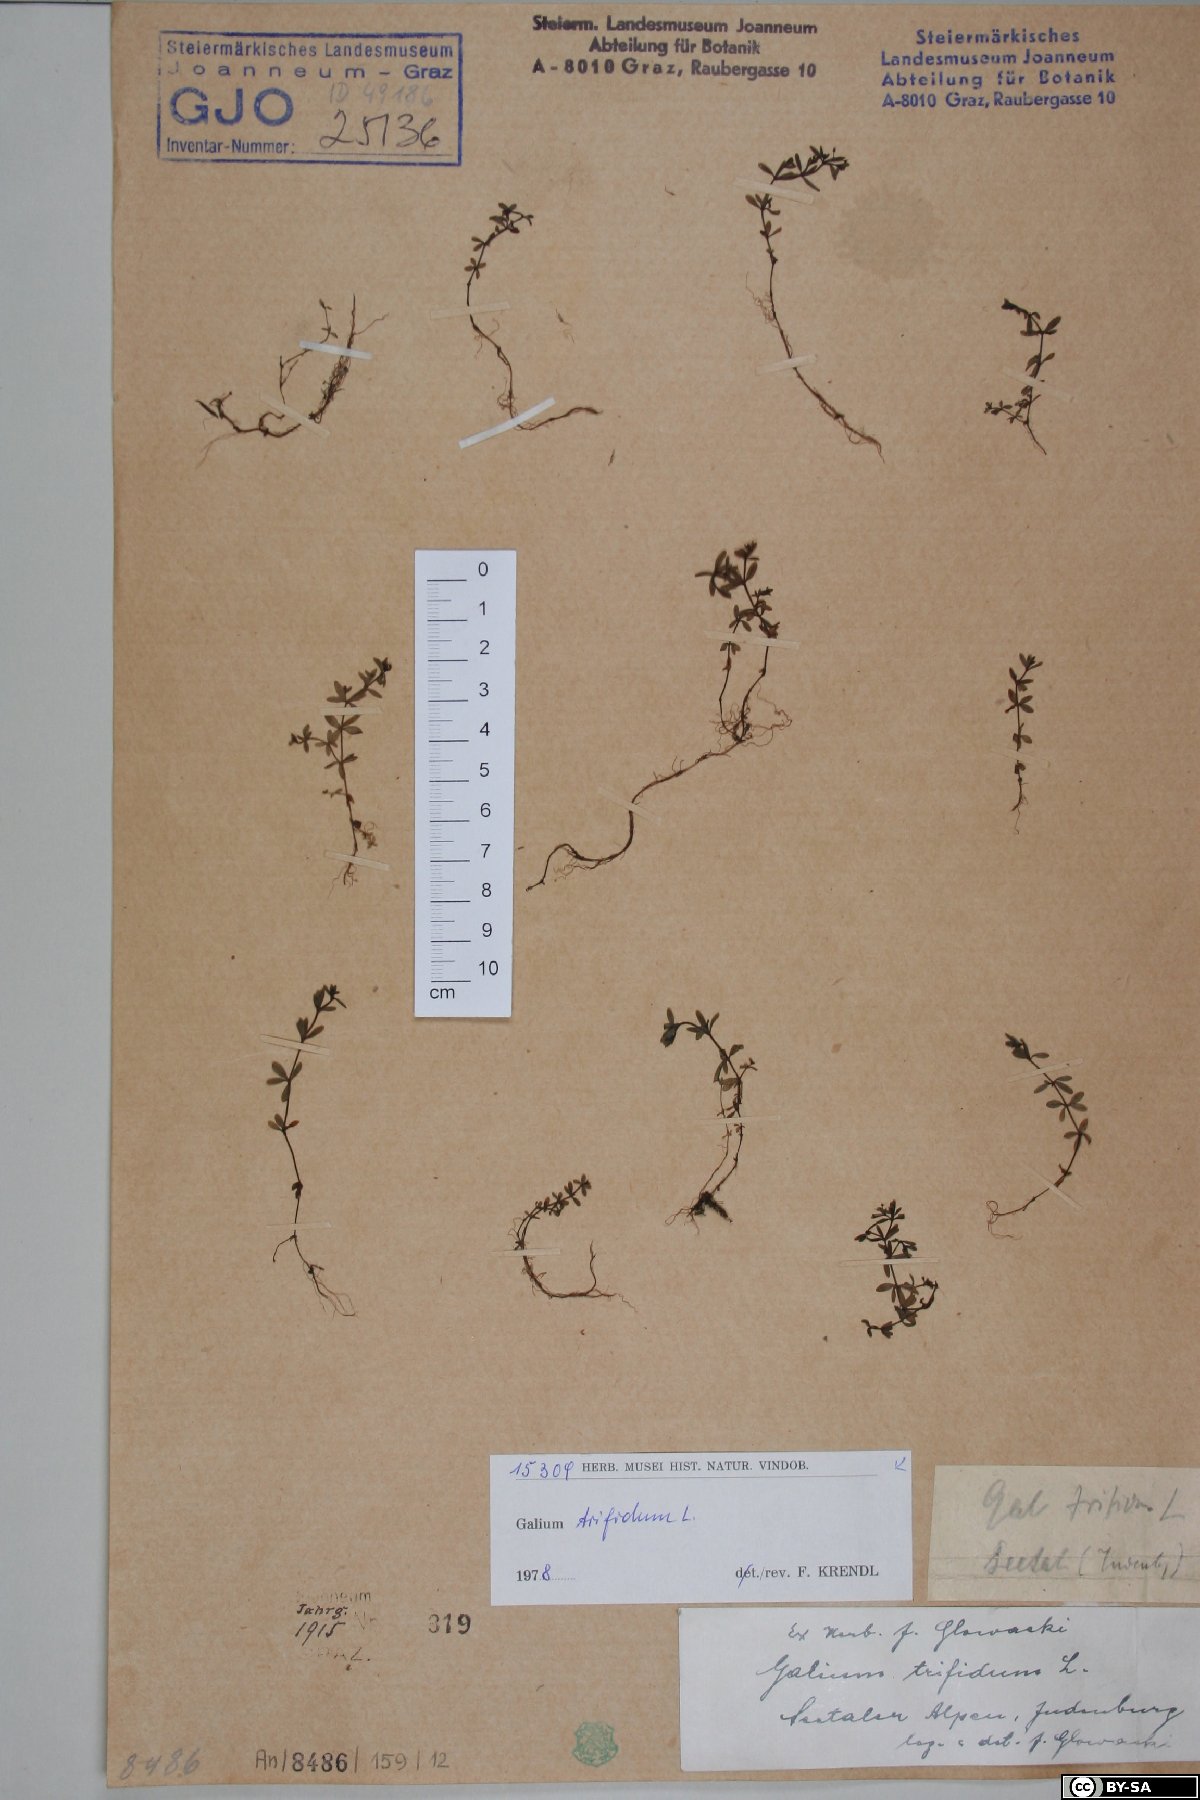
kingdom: Plantae
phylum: Tracheophyta
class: Magnoliopsida
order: Gentianales
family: Rubiaceae
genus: Galium
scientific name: Galium trifidum
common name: Small bedstraw
